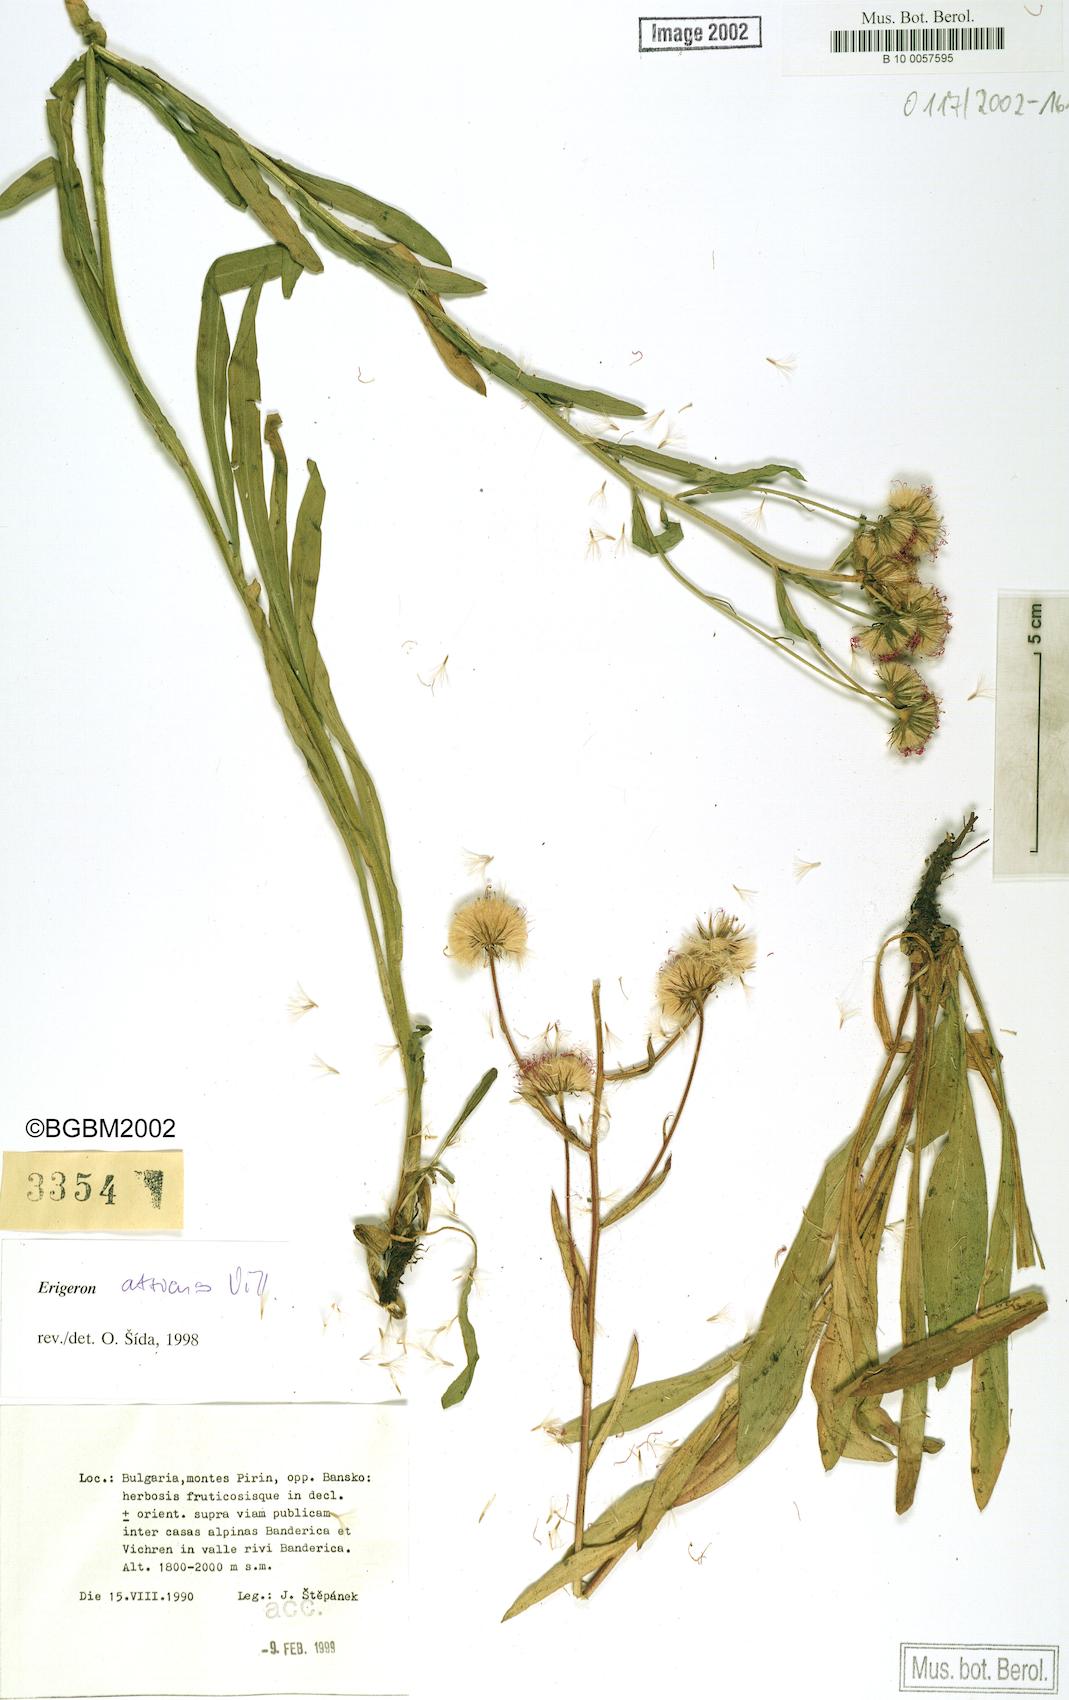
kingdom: Plantae
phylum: Tracheophyta
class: Magnoliopsida
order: Asterales
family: Asteraceae
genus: Erigeron
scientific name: Erigeron atticus
